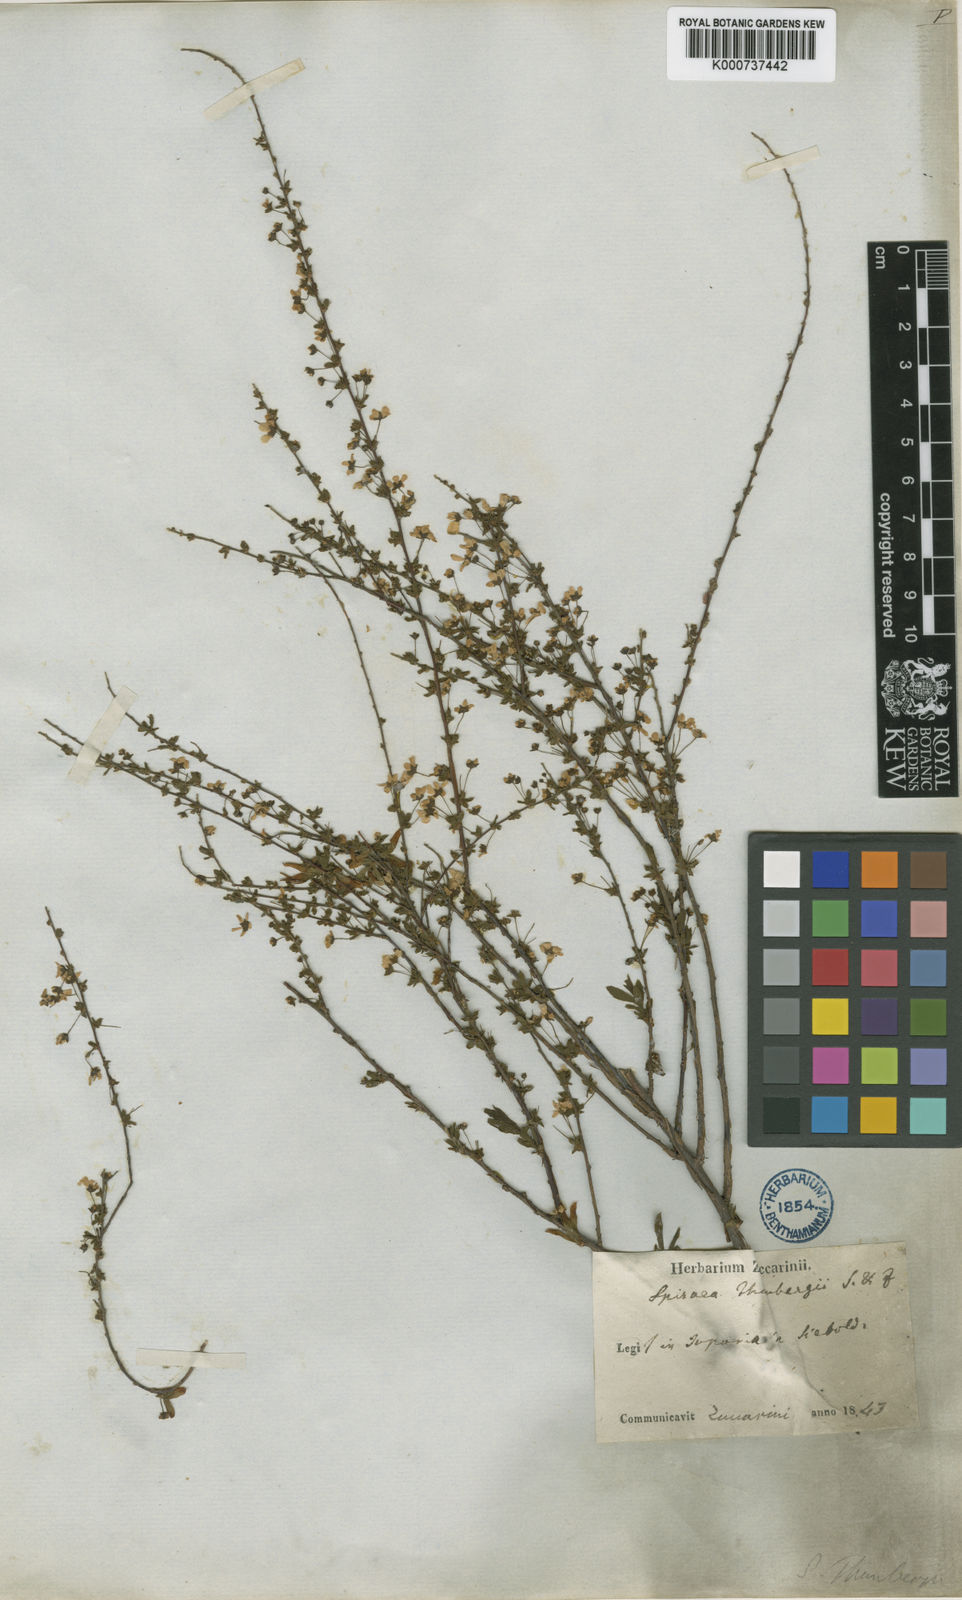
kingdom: Plantae
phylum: Tracheophyta
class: Magnoliopsida
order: Rosales
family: Rosaceae
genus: Spiraea
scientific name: Spiraea
